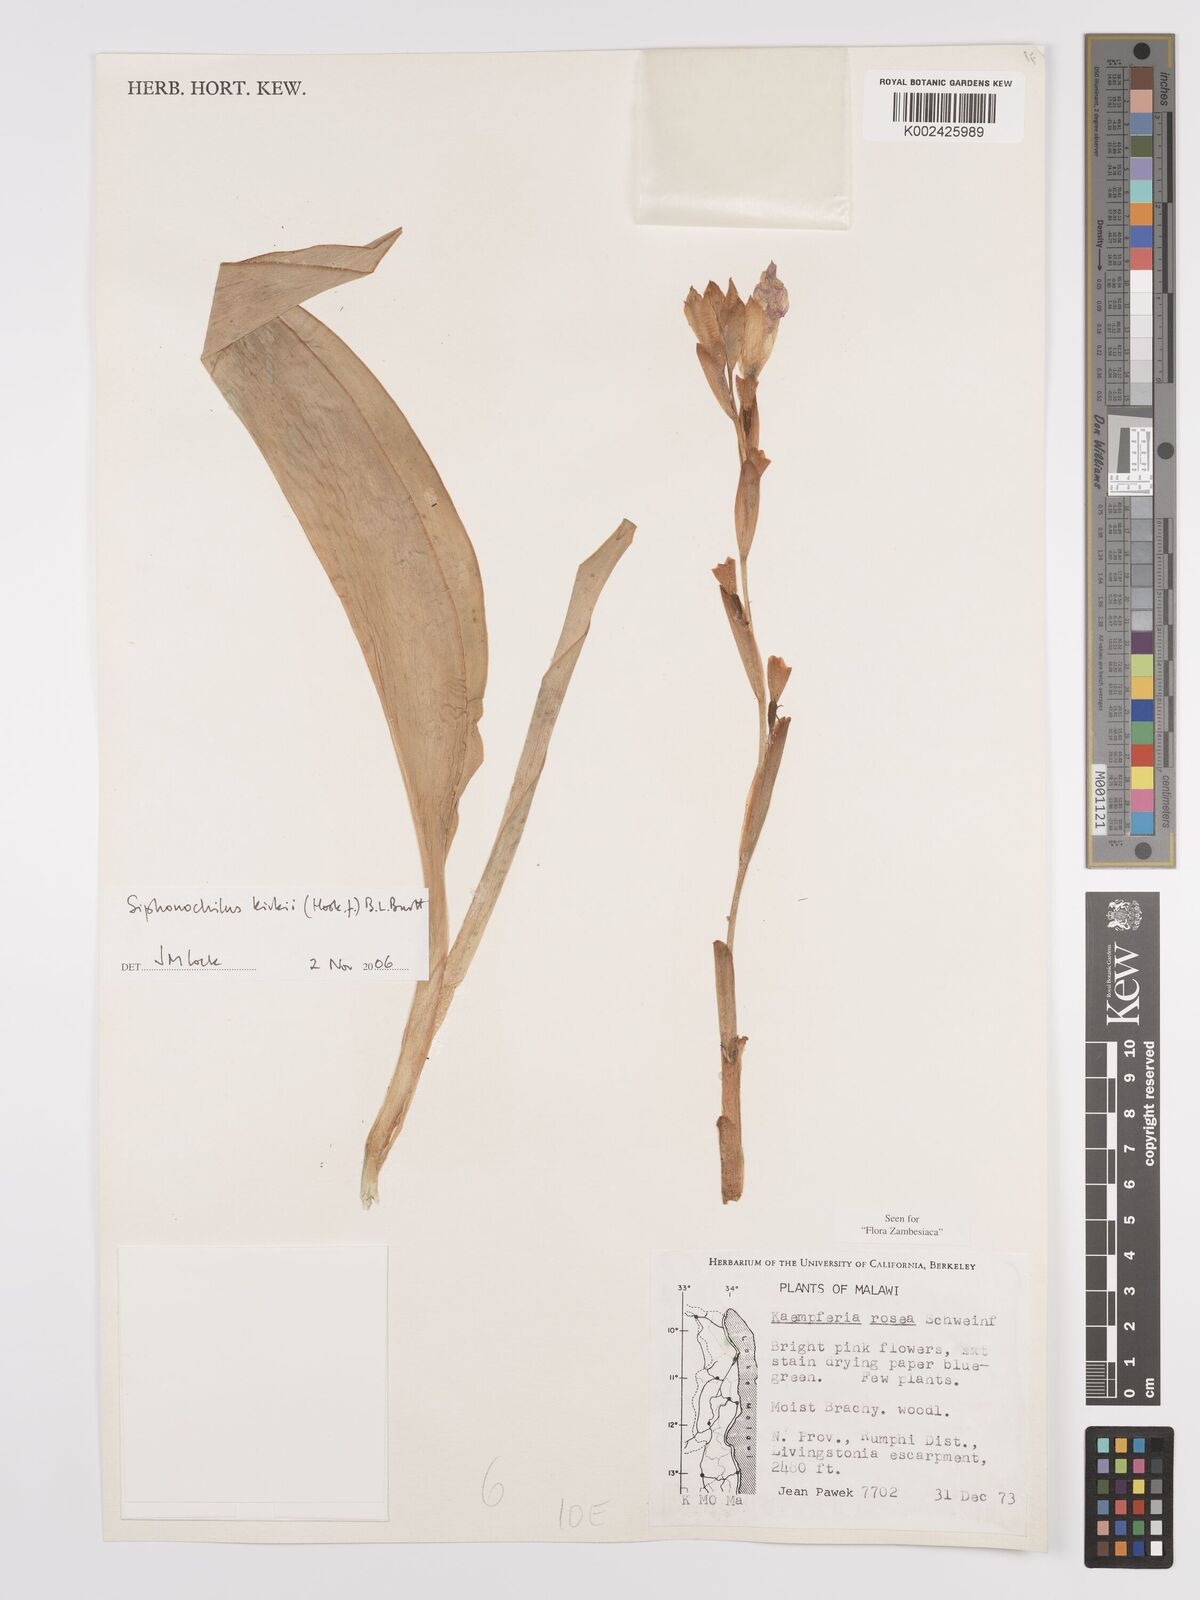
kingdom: Plantae
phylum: Tracheophyta
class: Liliopsida
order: Zingiberales
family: Zingiberaceae
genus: Siphonochilus
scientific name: Siphonochilus kirkii
